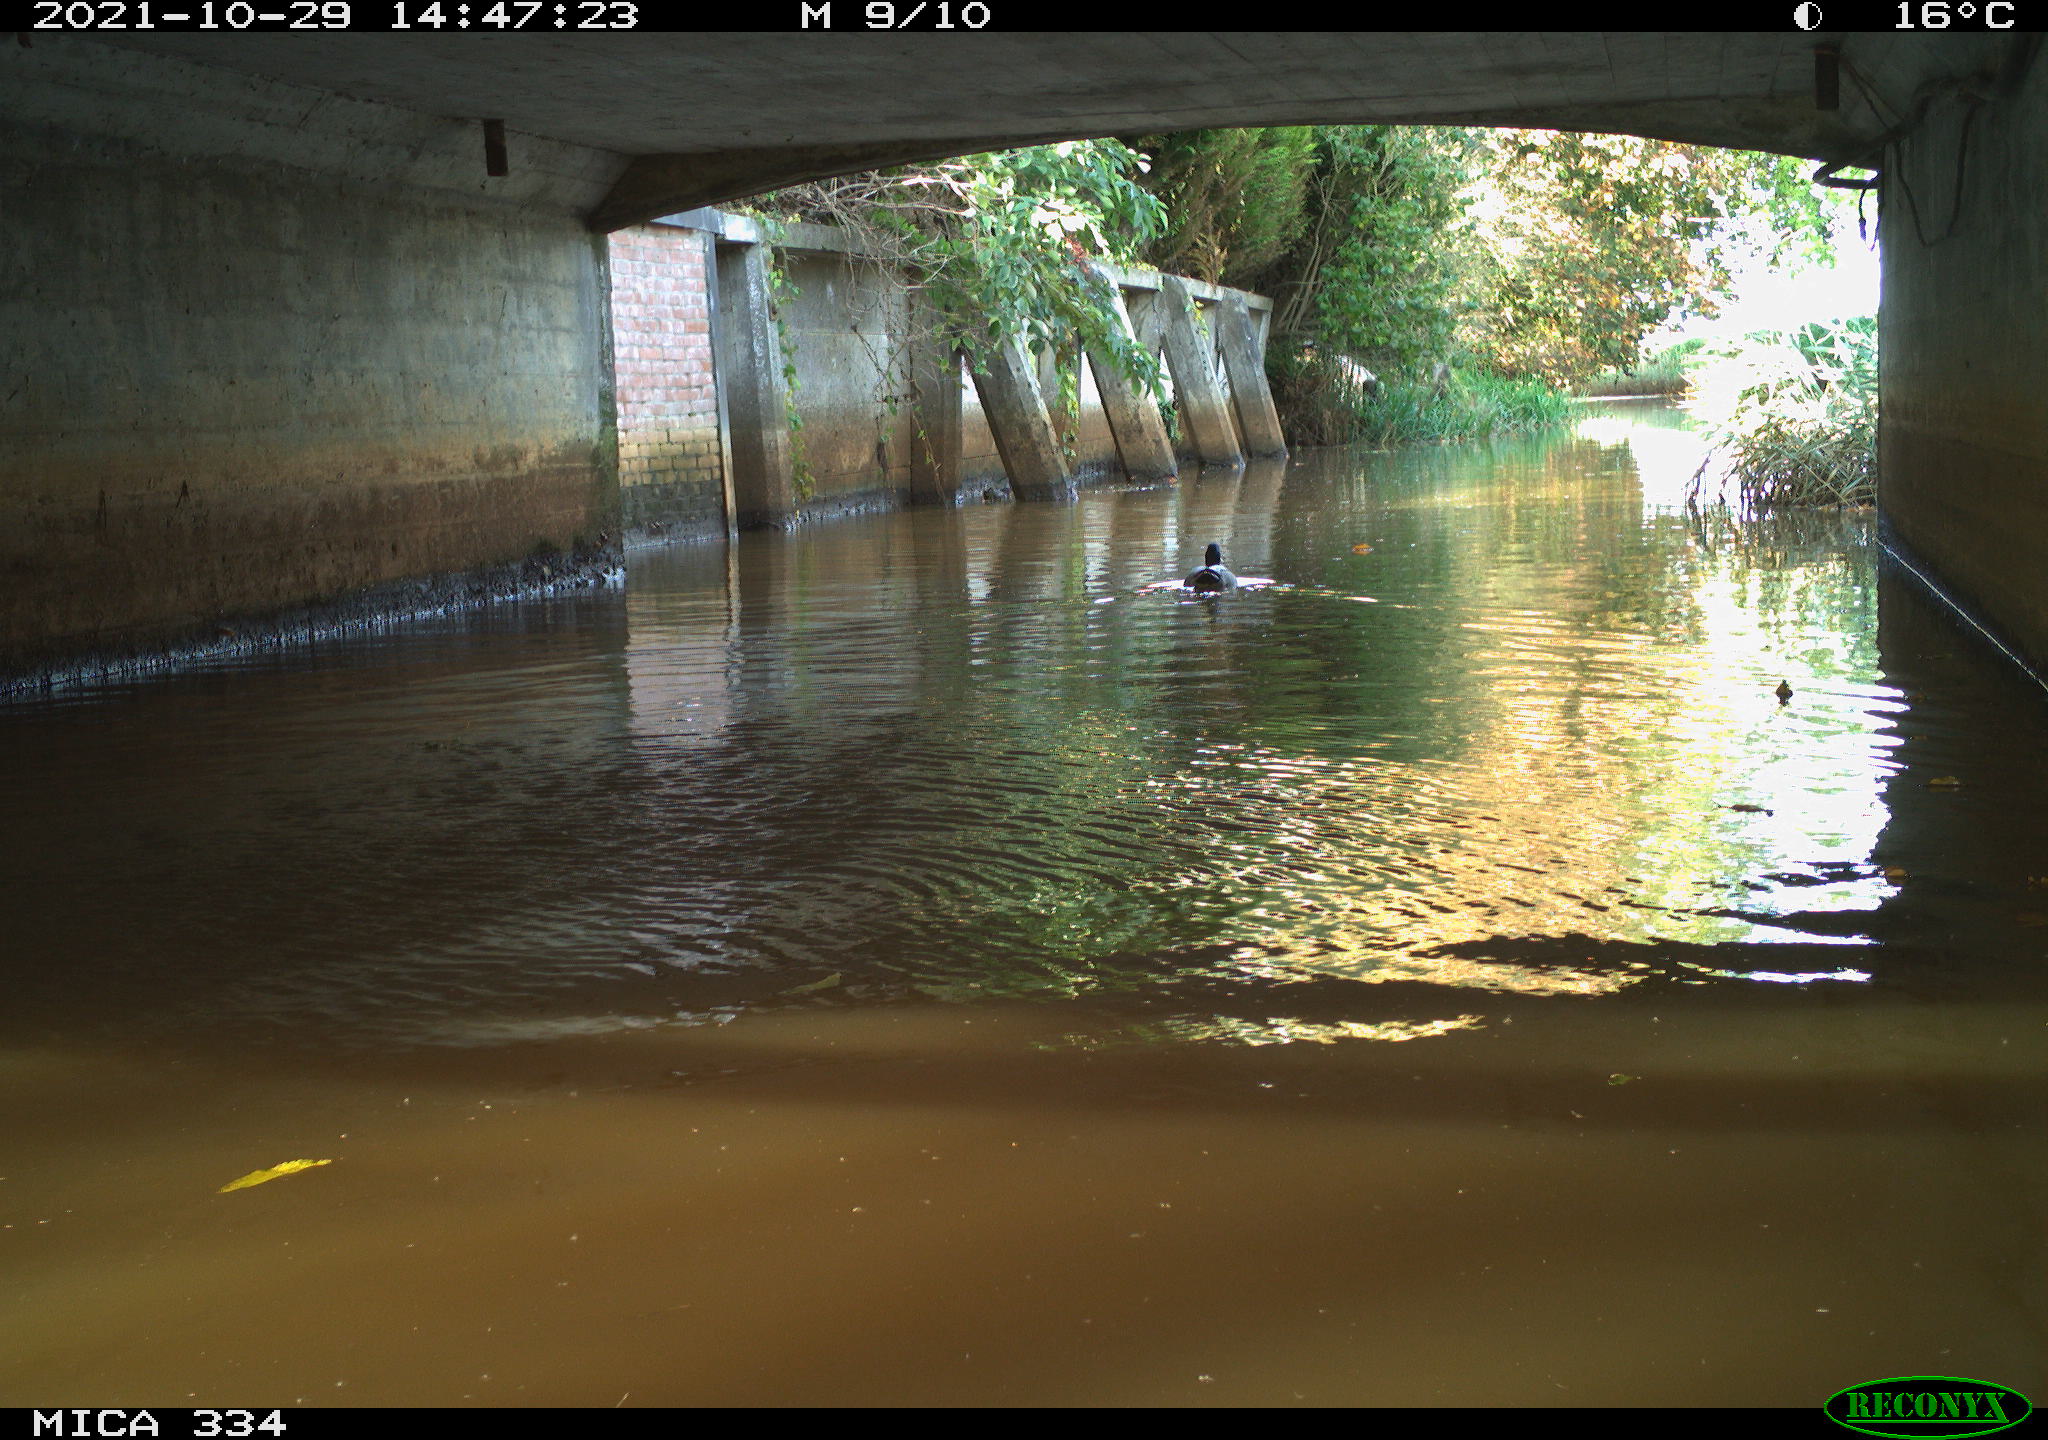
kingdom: Animalia
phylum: Chordata
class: Aves
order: Anseriformes
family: Anatidae
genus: Anas
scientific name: Anas platyrhynchos
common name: Mallard
